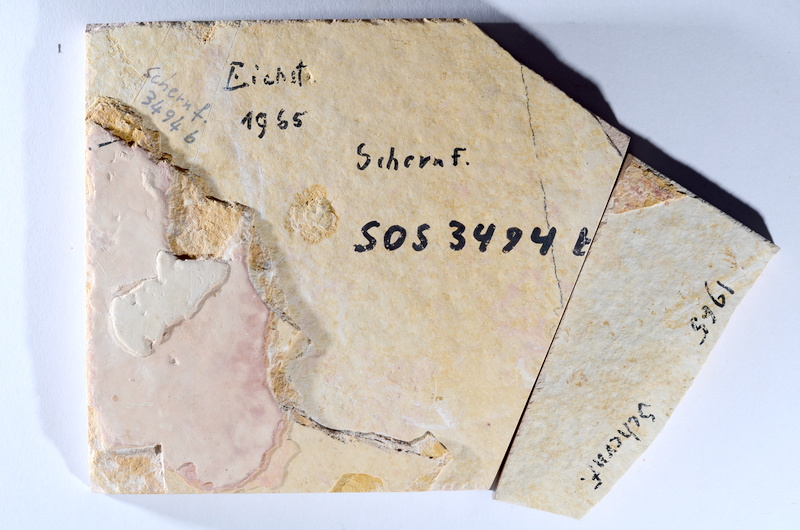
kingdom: Animalia
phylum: Chordata
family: Ascalaboidae
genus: Tharsis
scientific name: Tharsis dubius
